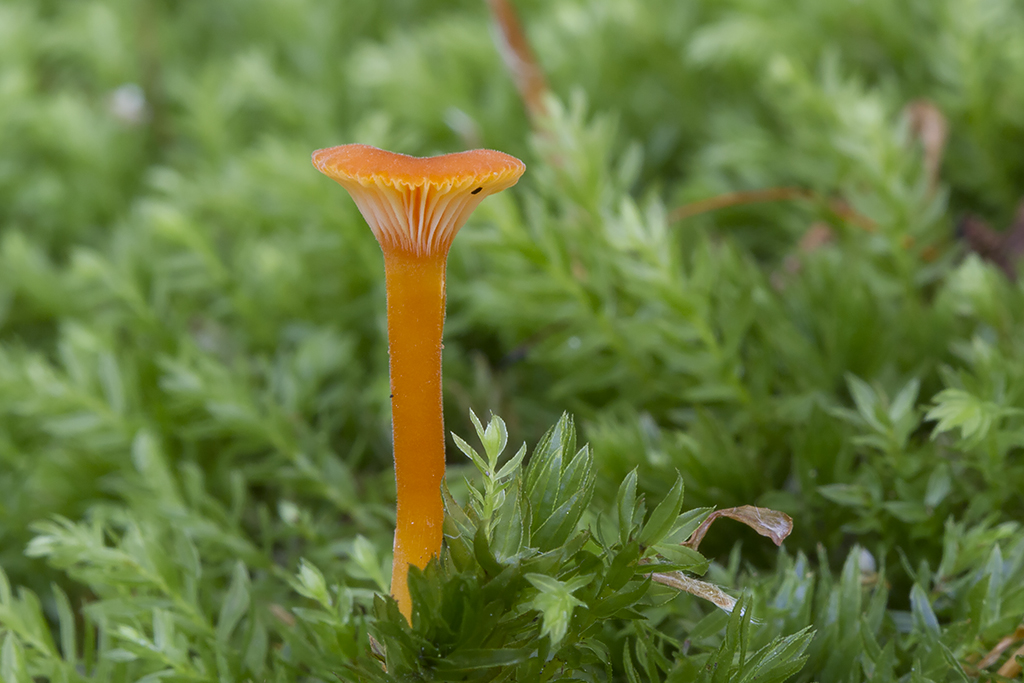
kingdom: Fungi
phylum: Basidiomycota
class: Agaricomycetes
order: Hymenochaetales
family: Rickenellaceae
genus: Rickenella
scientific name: Rickenella fibula
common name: orange mosnavlehat
